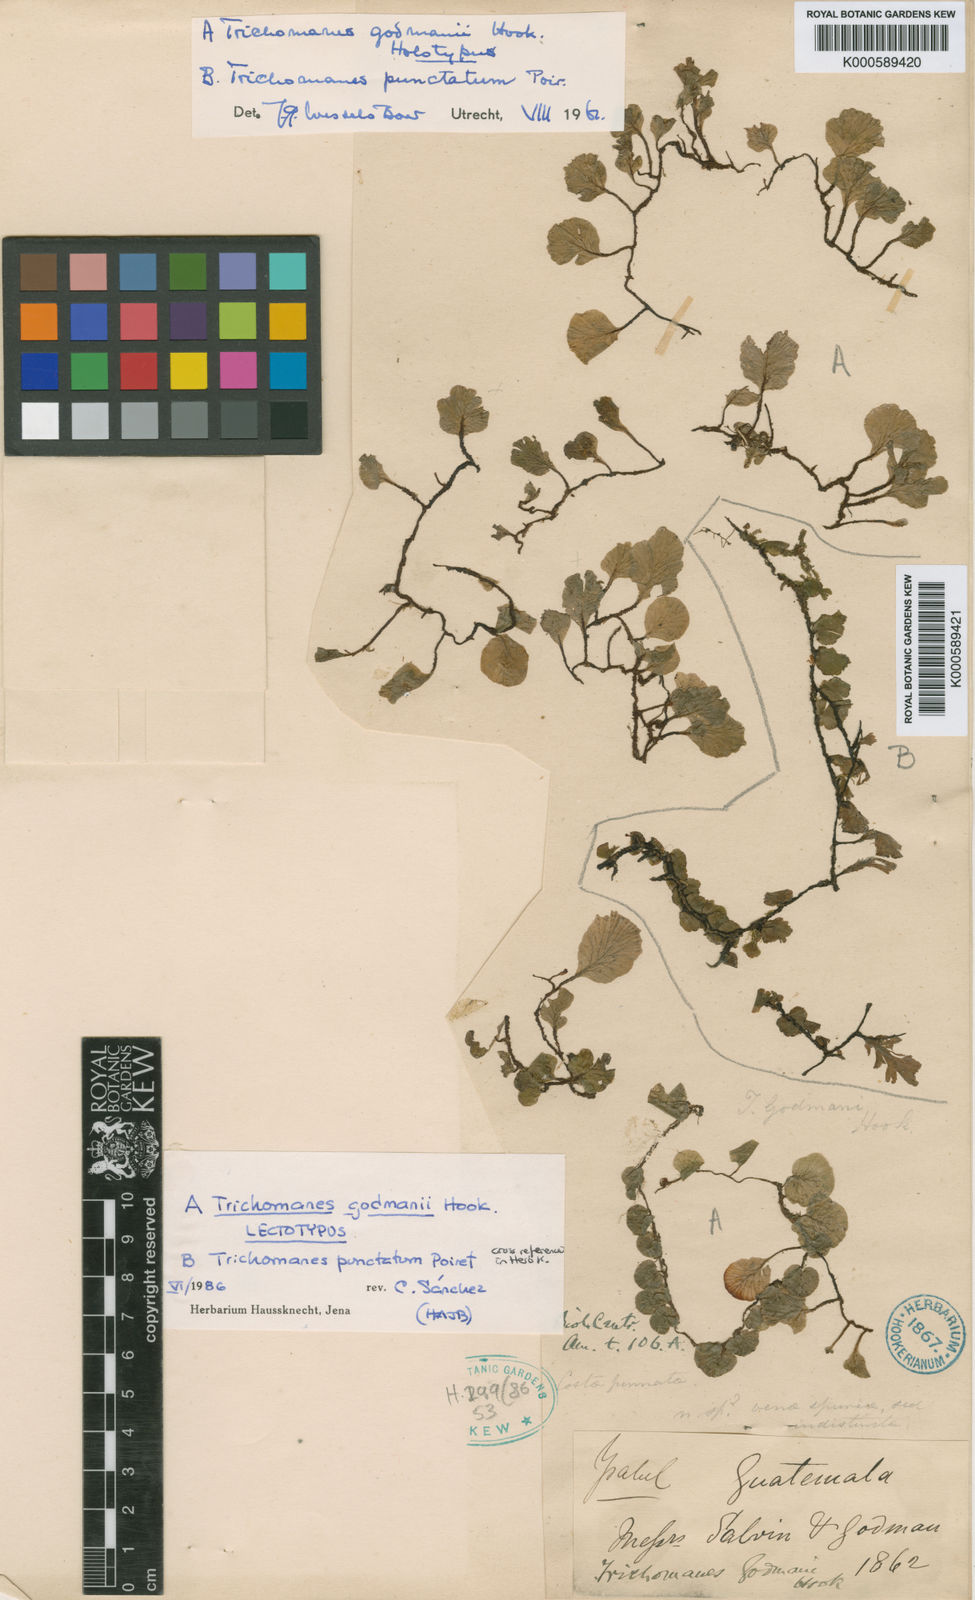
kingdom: Plantae
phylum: Tracheophyta
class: Polypodiopsida
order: Hymenophyllales
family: Hymenophyllaceae
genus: Trichomanes
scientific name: Trichomanes
